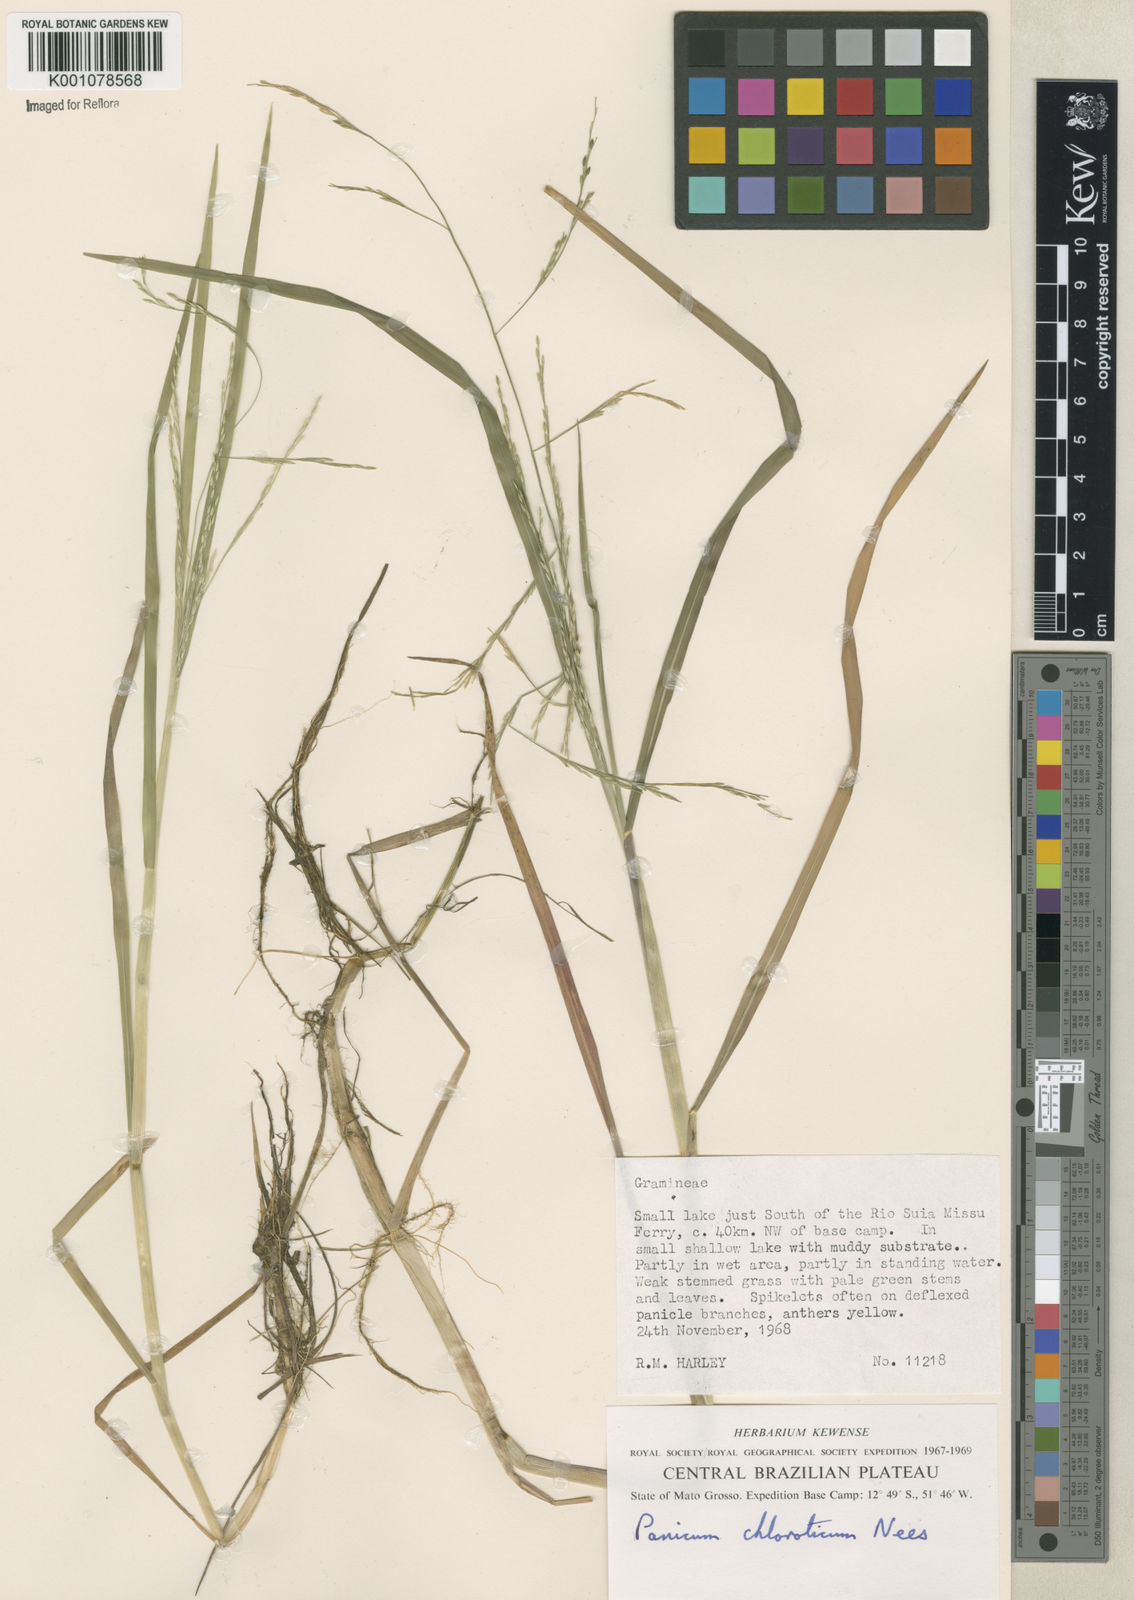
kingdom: Plantae
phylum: Tracheophyta
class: Liliopsida
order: Poales
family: Poaceae
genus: Panicum
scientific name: Panicum dichotomiflorum
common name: Autumn millet
